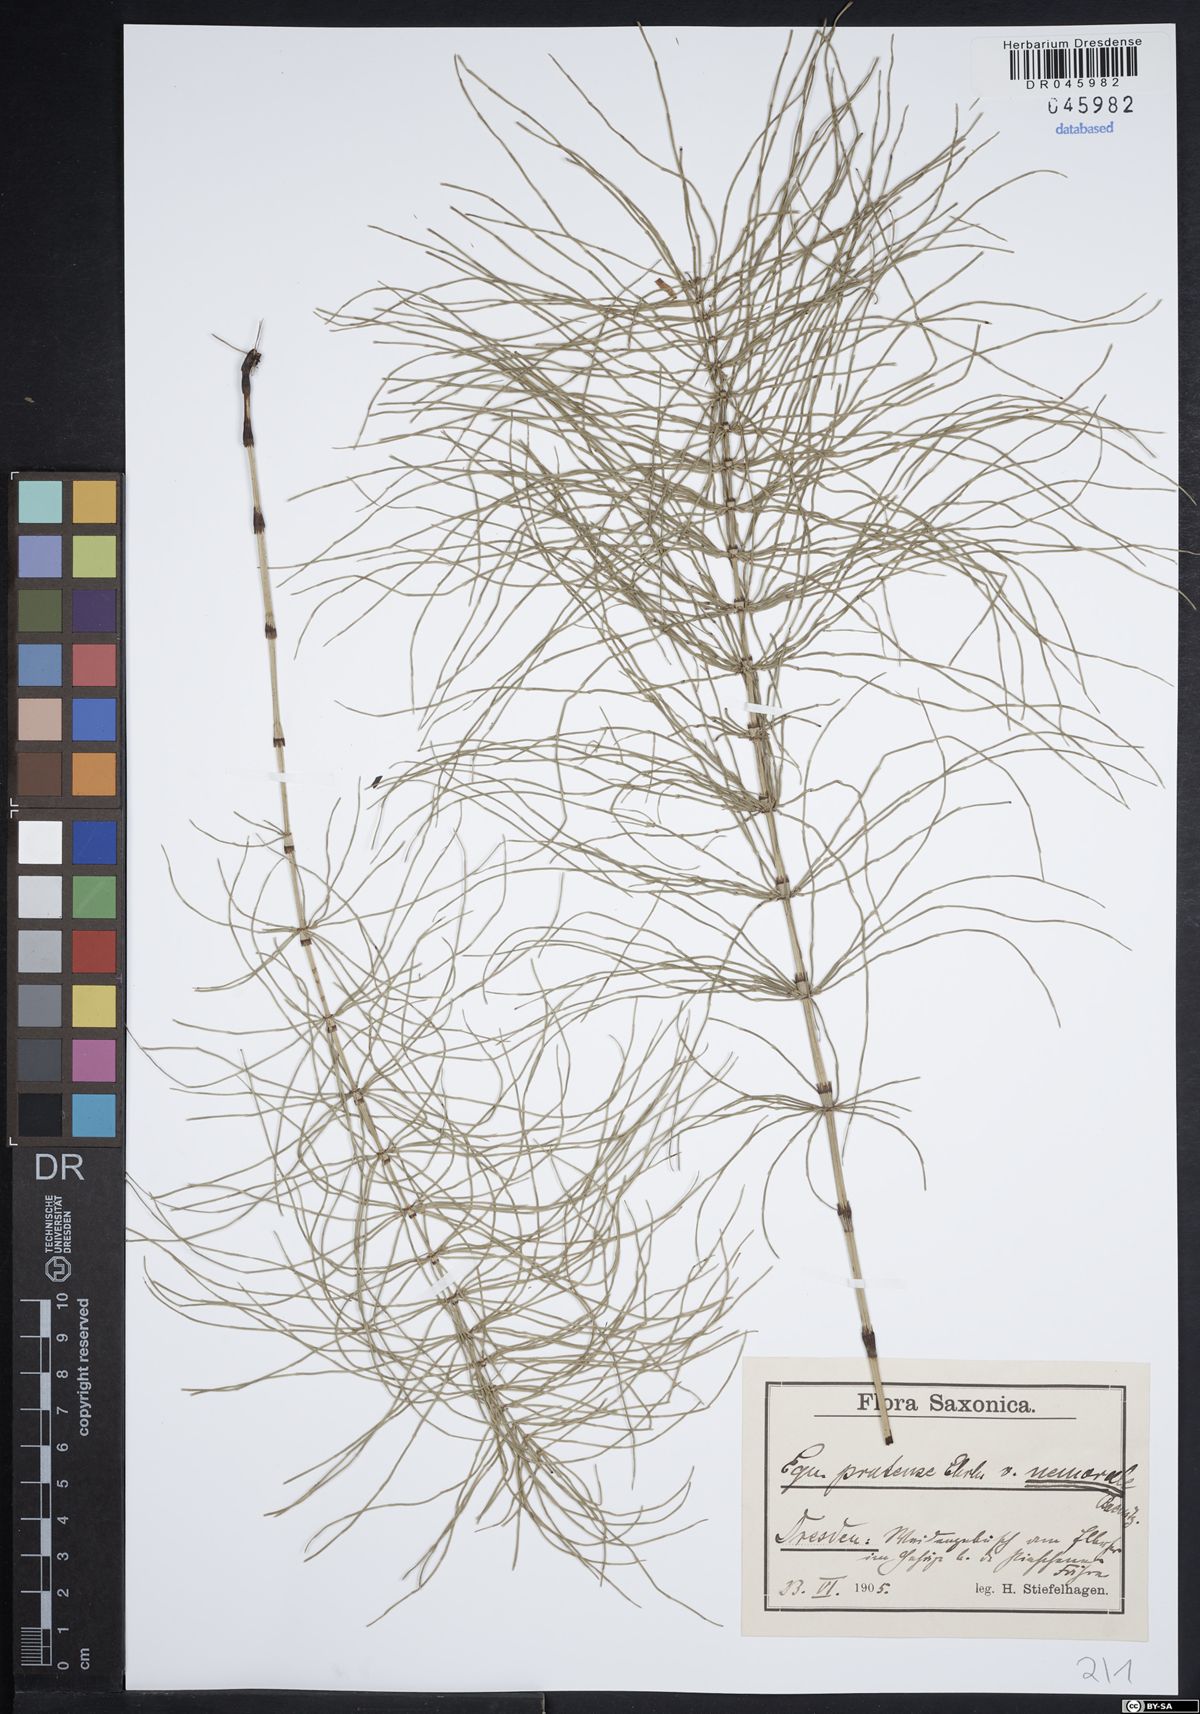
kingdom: Plantae
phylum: Tracheophyta
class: Polypodiopsida
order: Equisetales
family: Equisetaceae
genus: Equisetum
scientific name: Equisetum pratense
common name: Meadow horsetail
